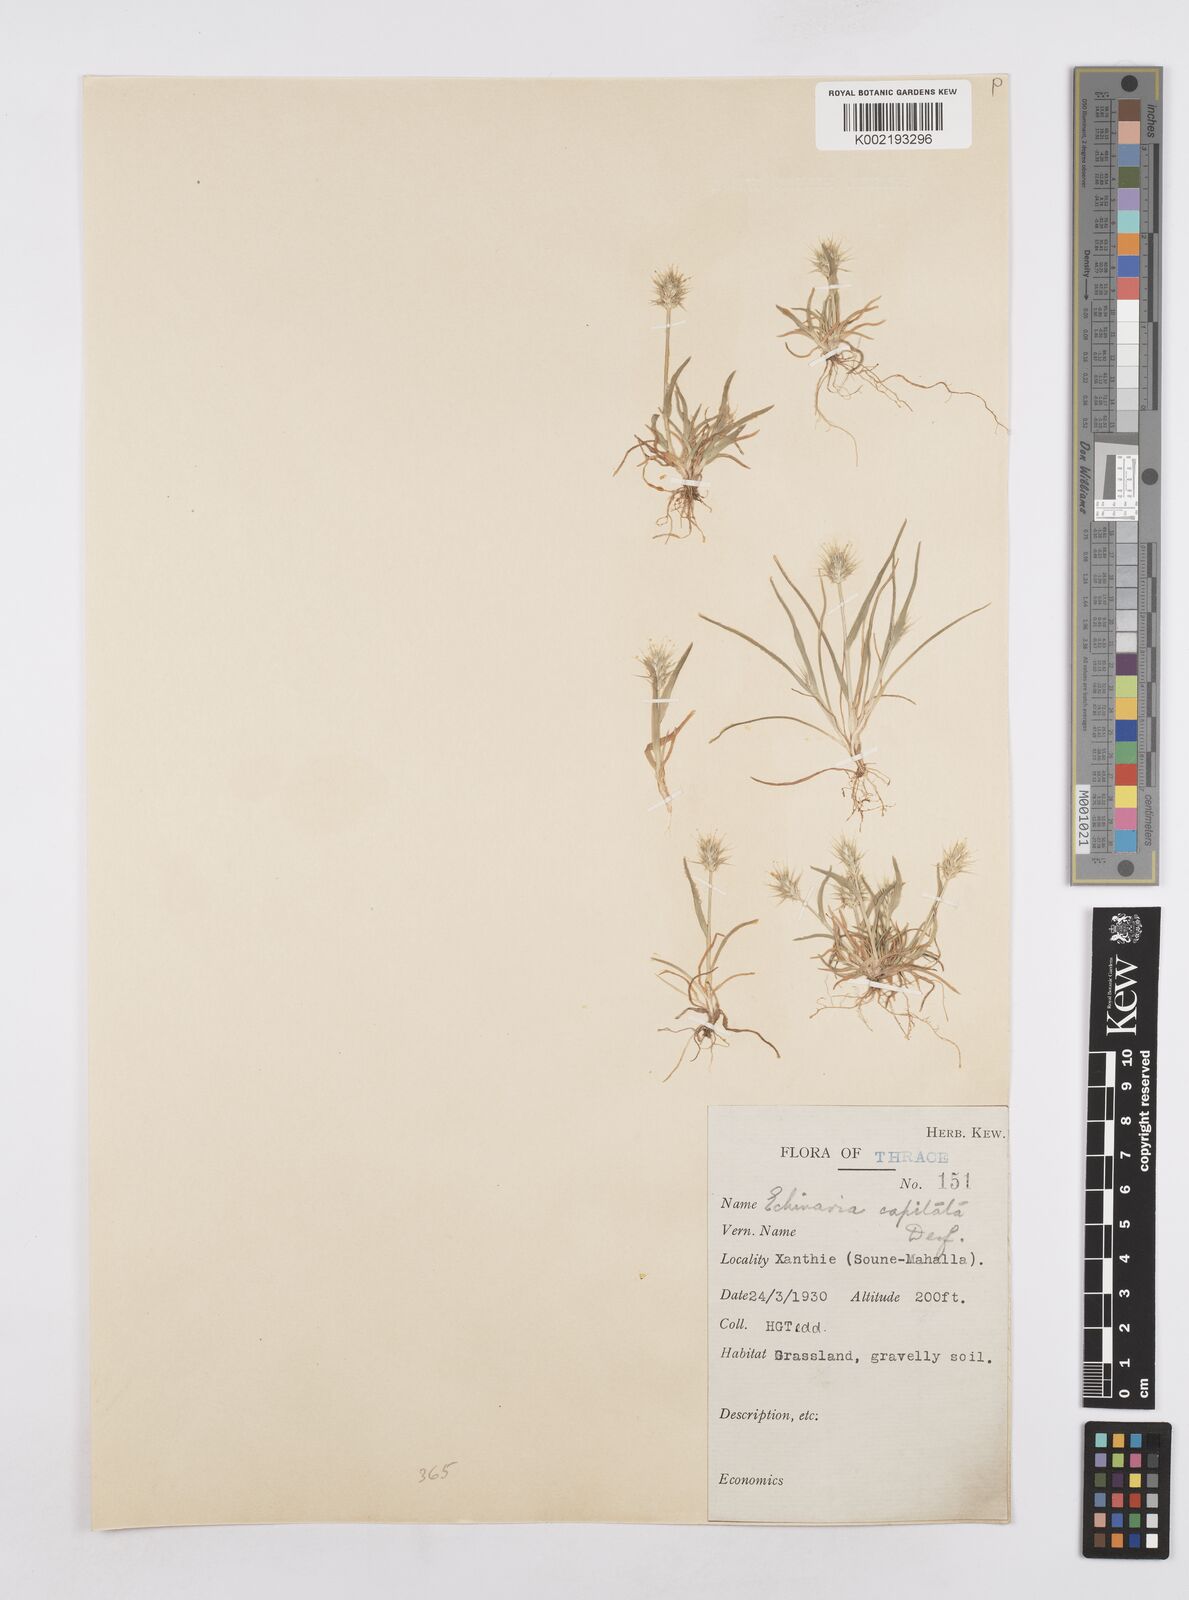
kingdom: Plantae
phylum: Tracheophyta
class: Liliopsida
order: Poales
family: Poaceae
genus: Echinaria
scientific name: Echinaria capitata
